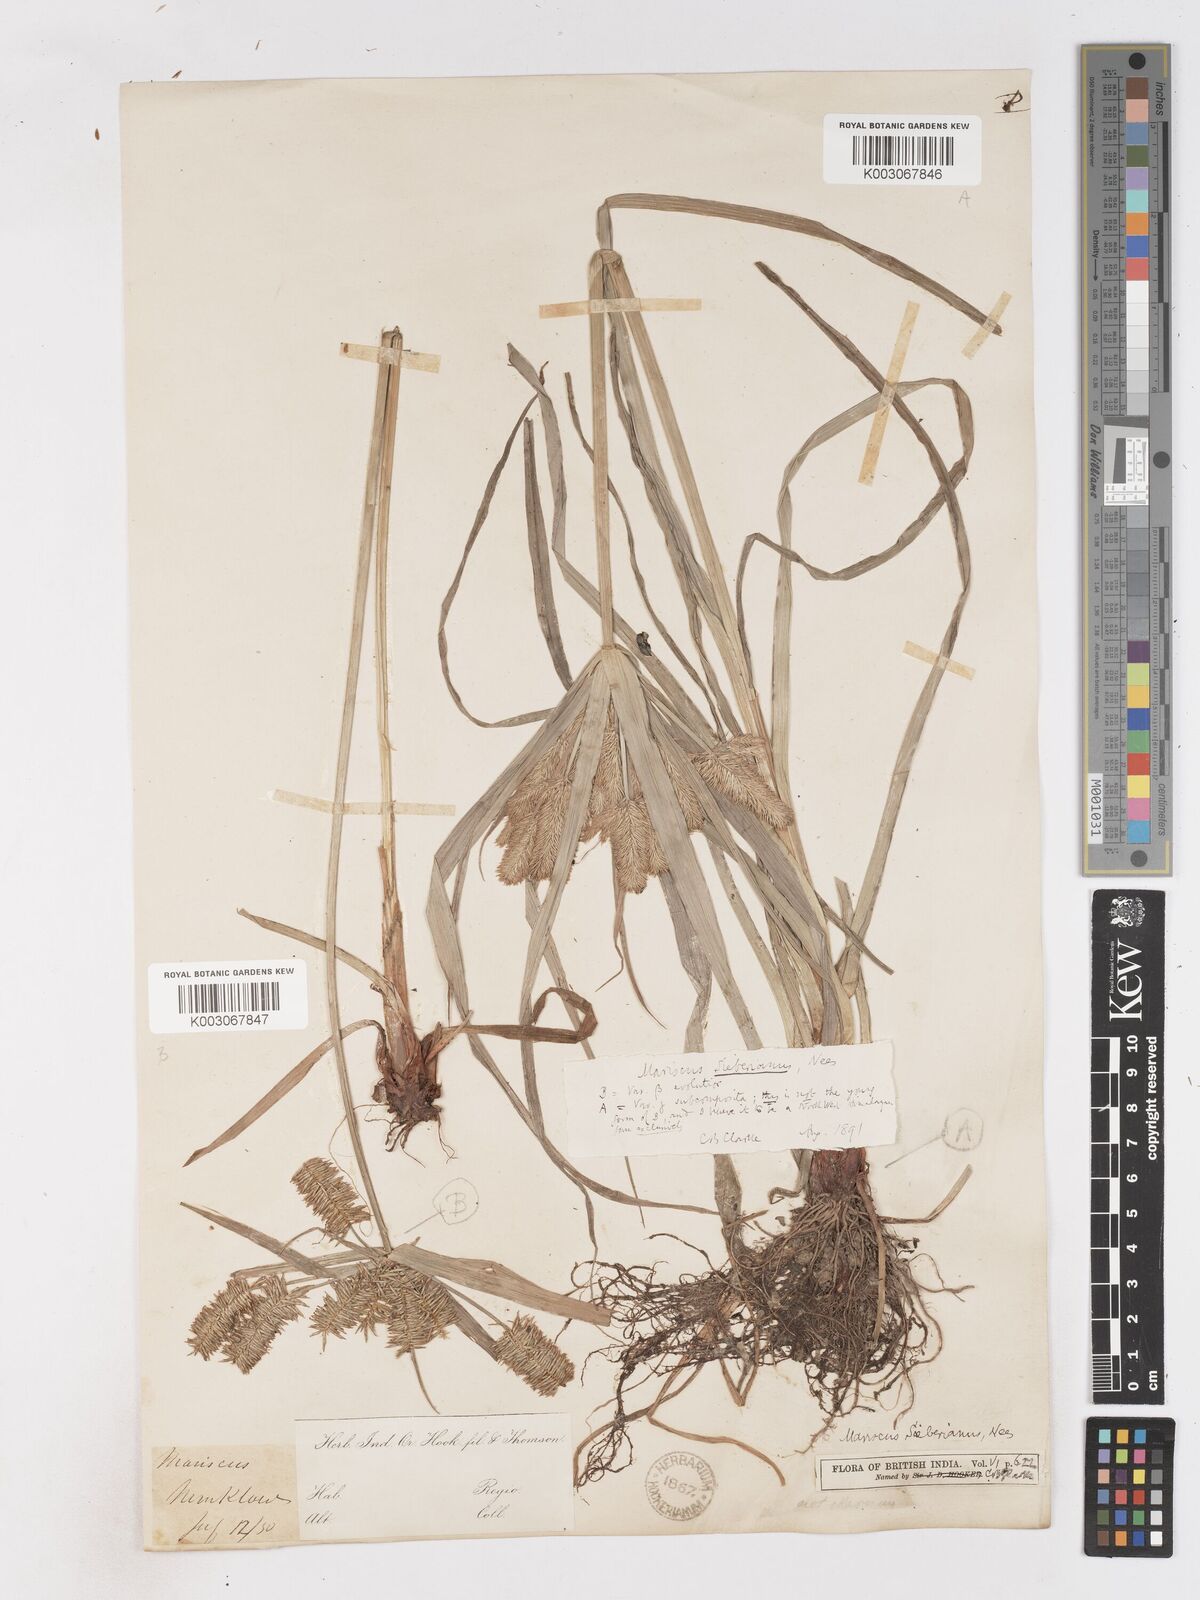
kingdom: Plantae
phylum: Tracheophyta
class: Liliopsida
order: Poales
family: Cyperaceae
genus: Cyperus
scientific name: Cyperus cyperoides
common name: Pacific island flat sedge
